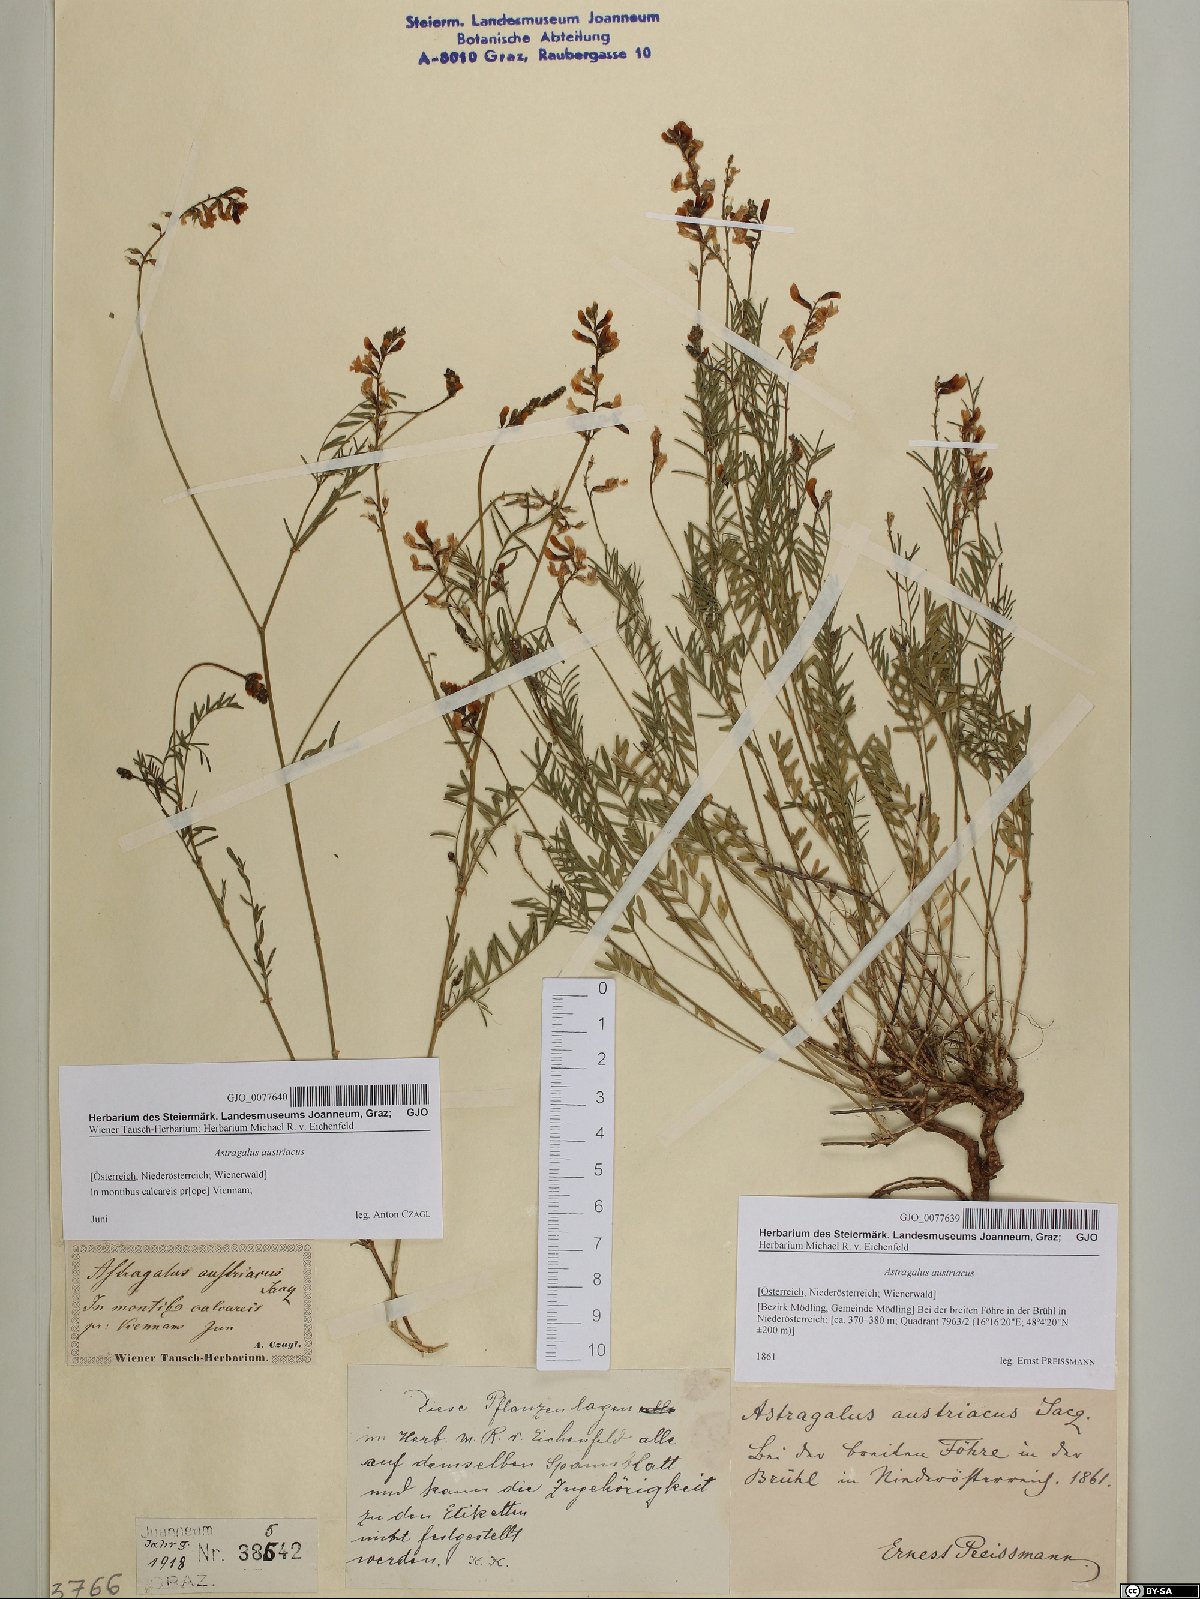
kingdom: Plantae
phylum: Tracheophyta
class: Magnoliopsida
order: Fabales
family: Fabaceae
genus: Astragalus
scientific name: Astragalus austriacus
